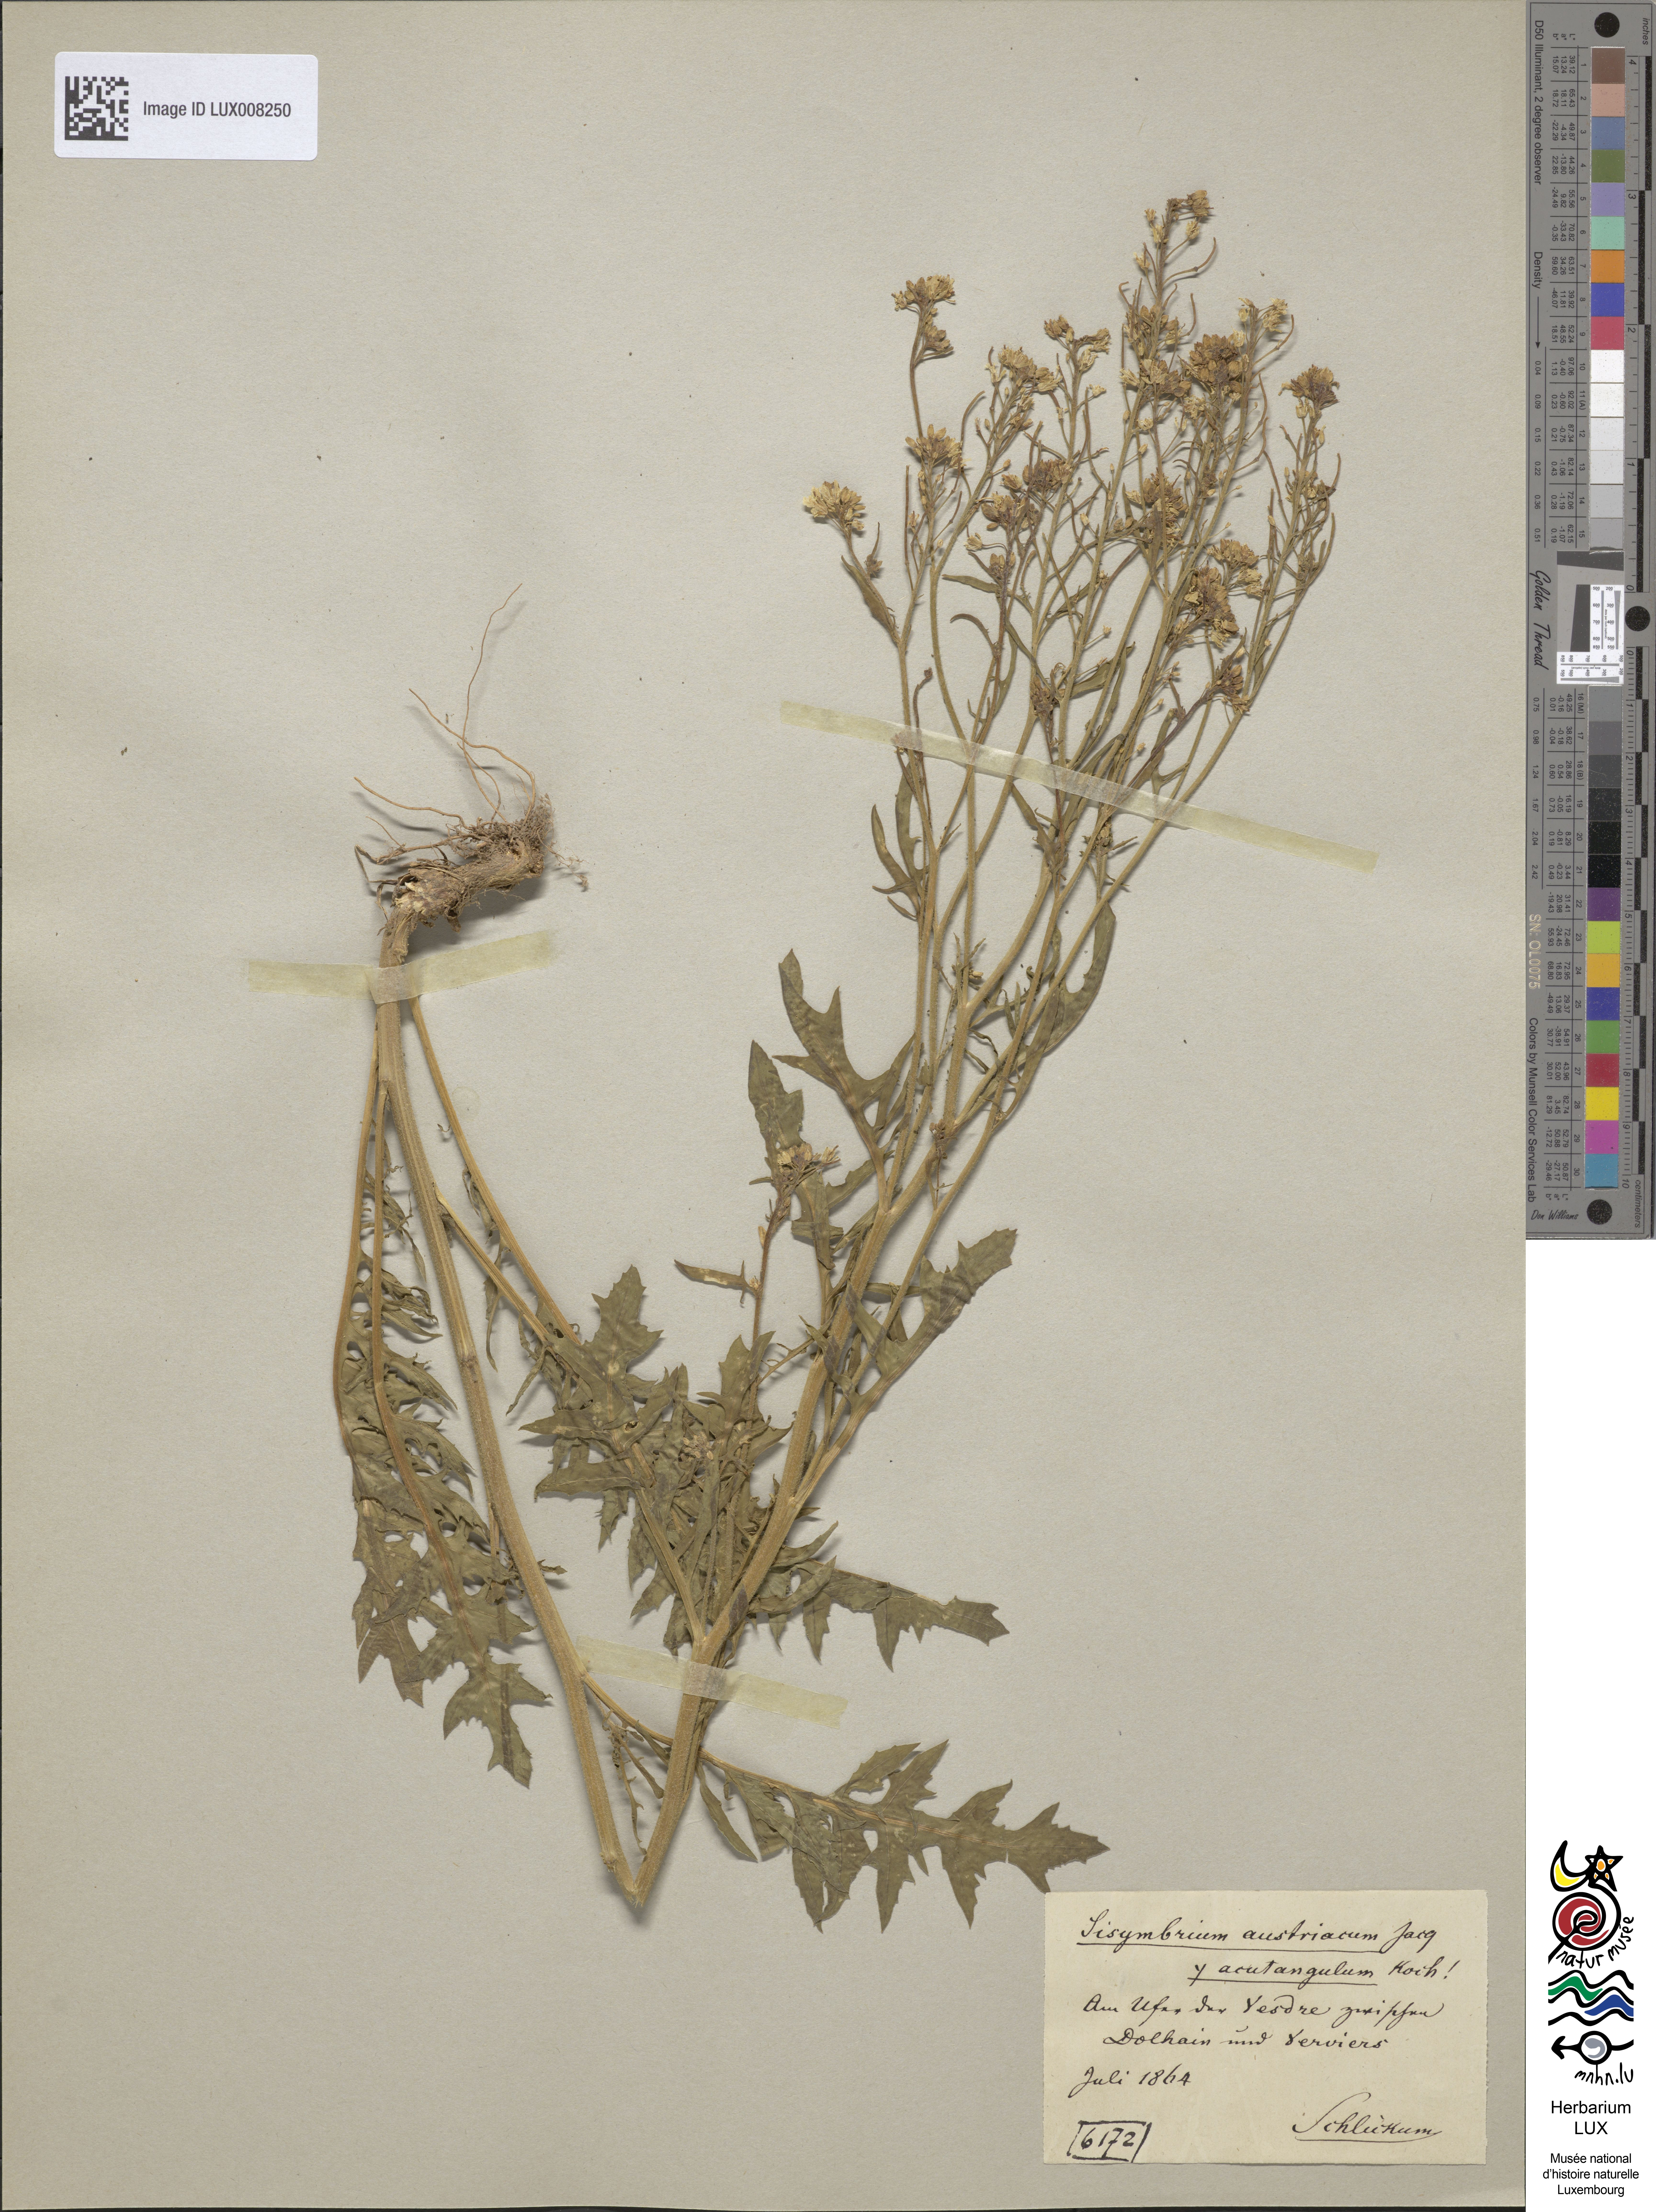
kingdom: Plantae
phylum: Tracheophyta
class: Magnoliopsida
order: Brassicales
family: Brassicaceae
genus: Sisymbrium
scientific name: Sisymbrium chrysanthum
